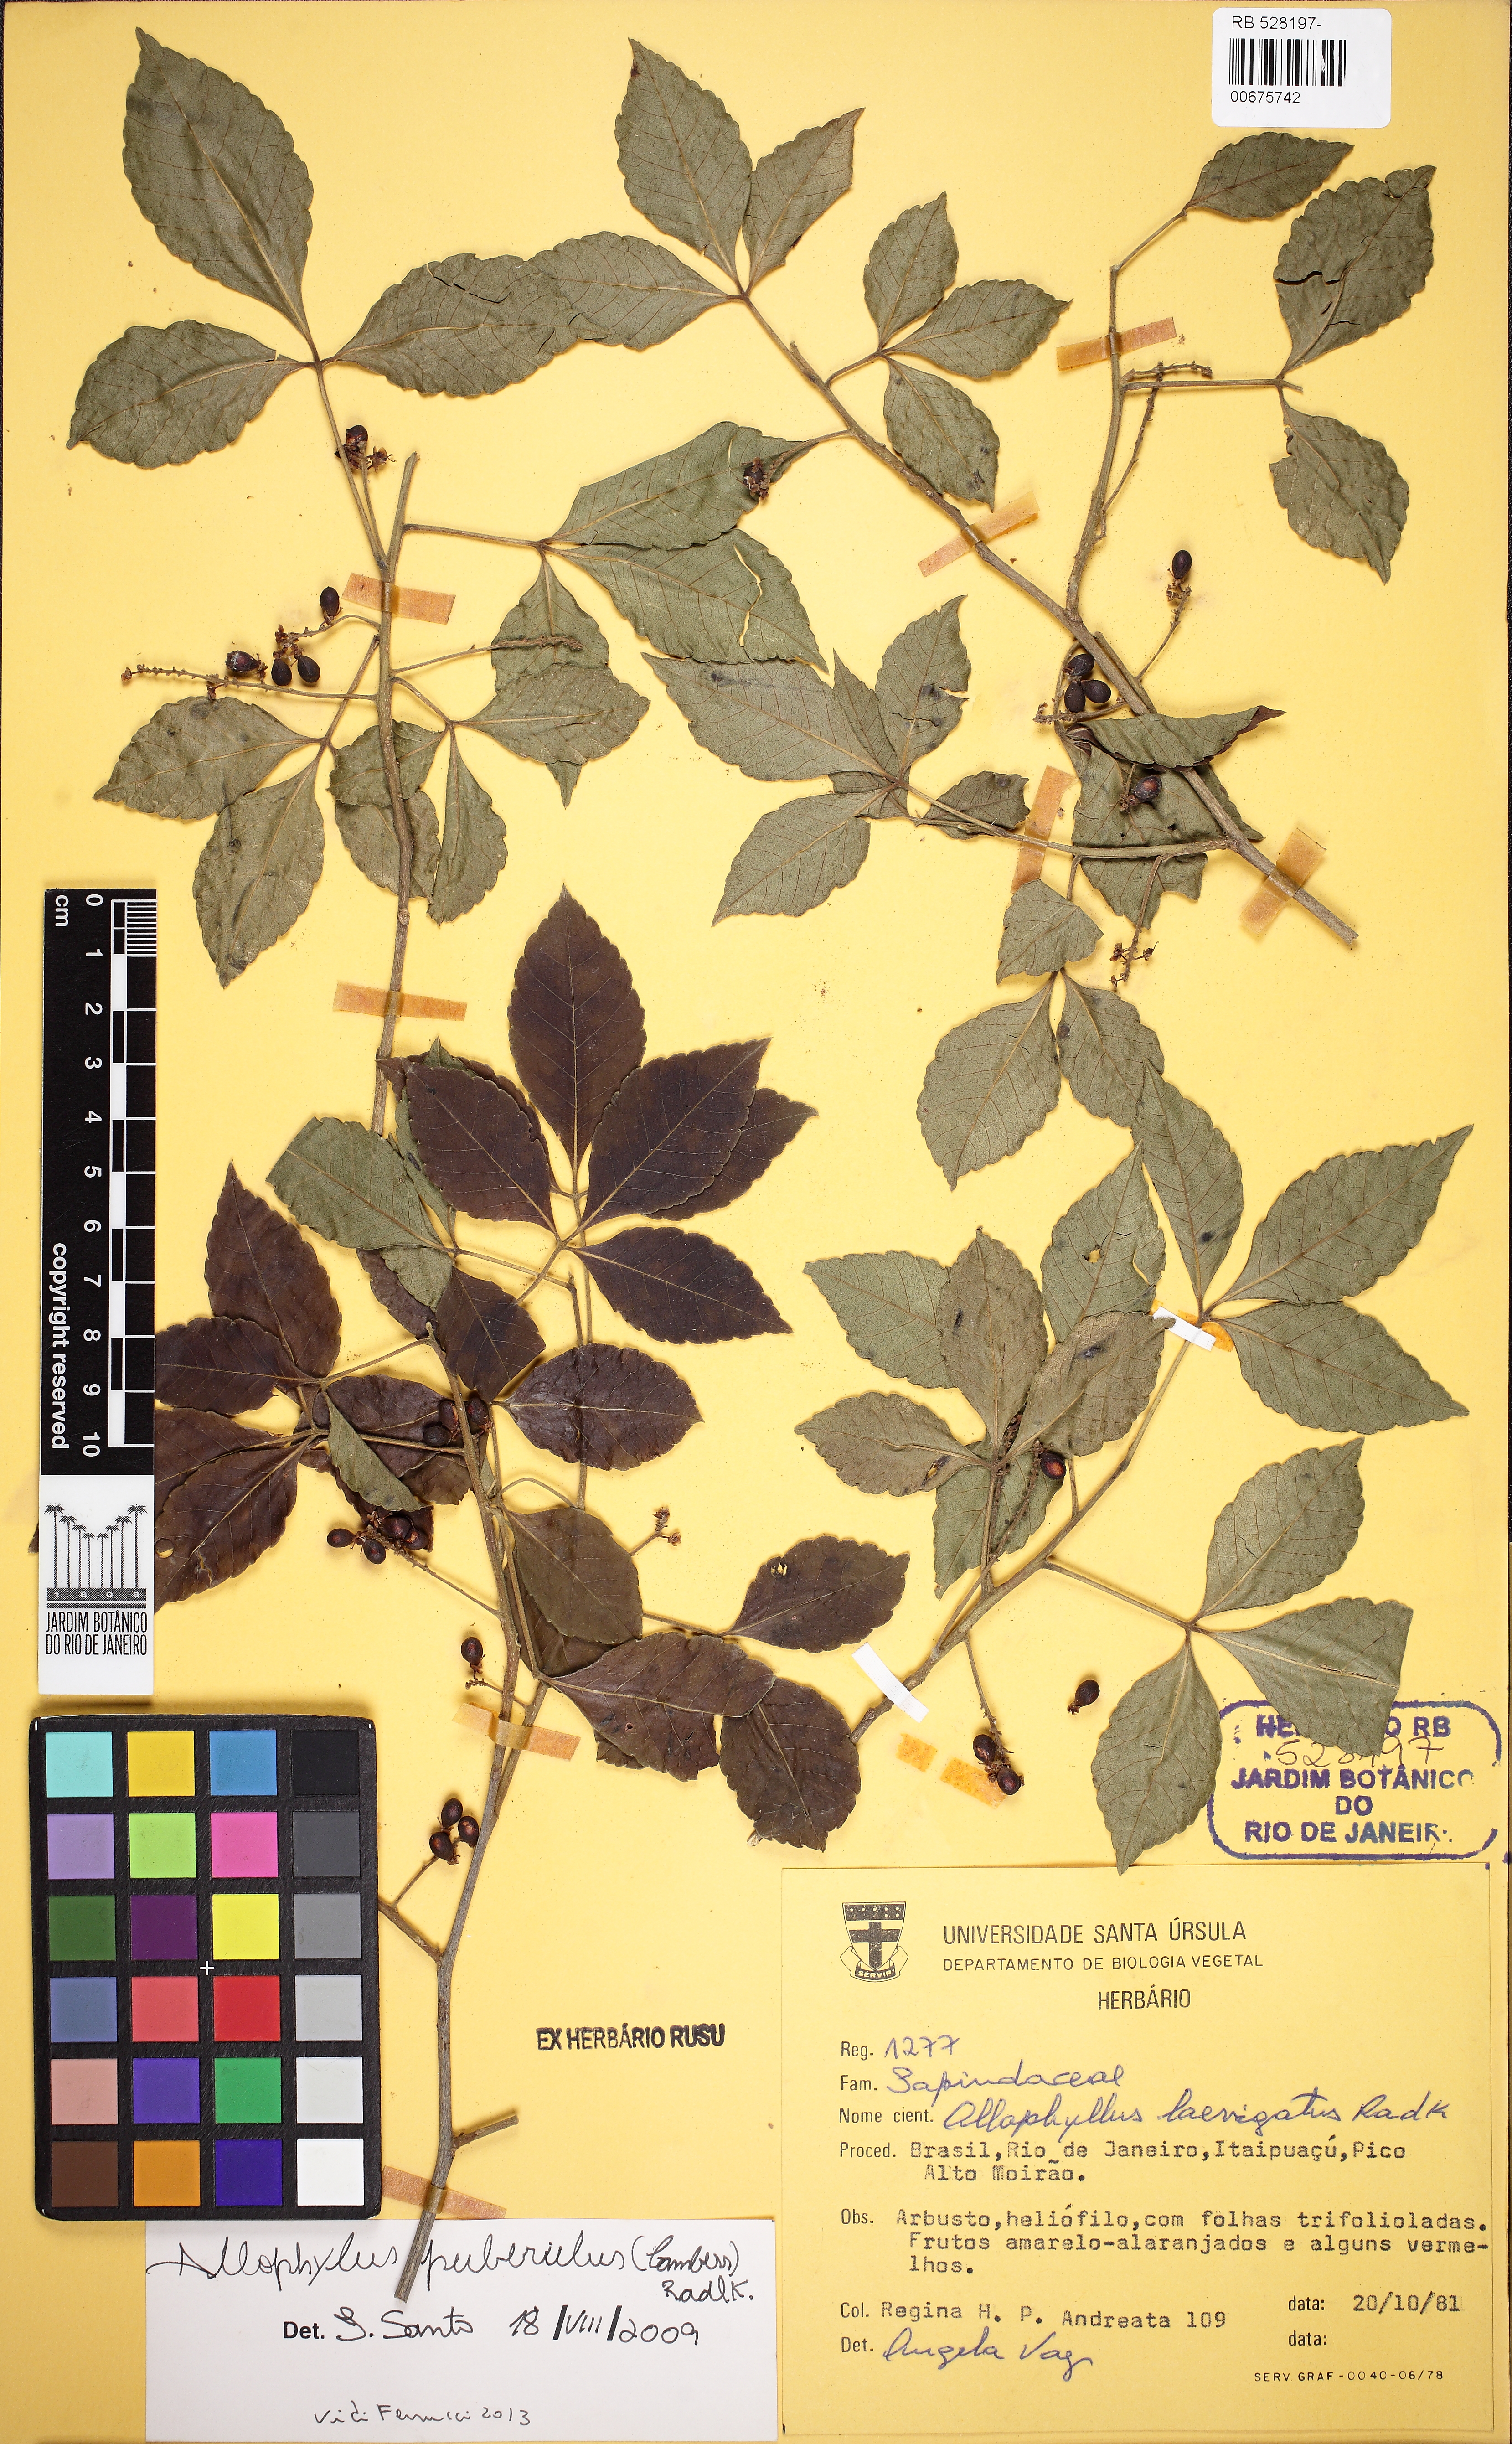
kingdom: Plantae
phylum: Tracheophyta
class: Magnoliopsida
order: Sapindales
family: Sapindaceae
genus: Allophylus
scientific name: Allophylus puberulus
